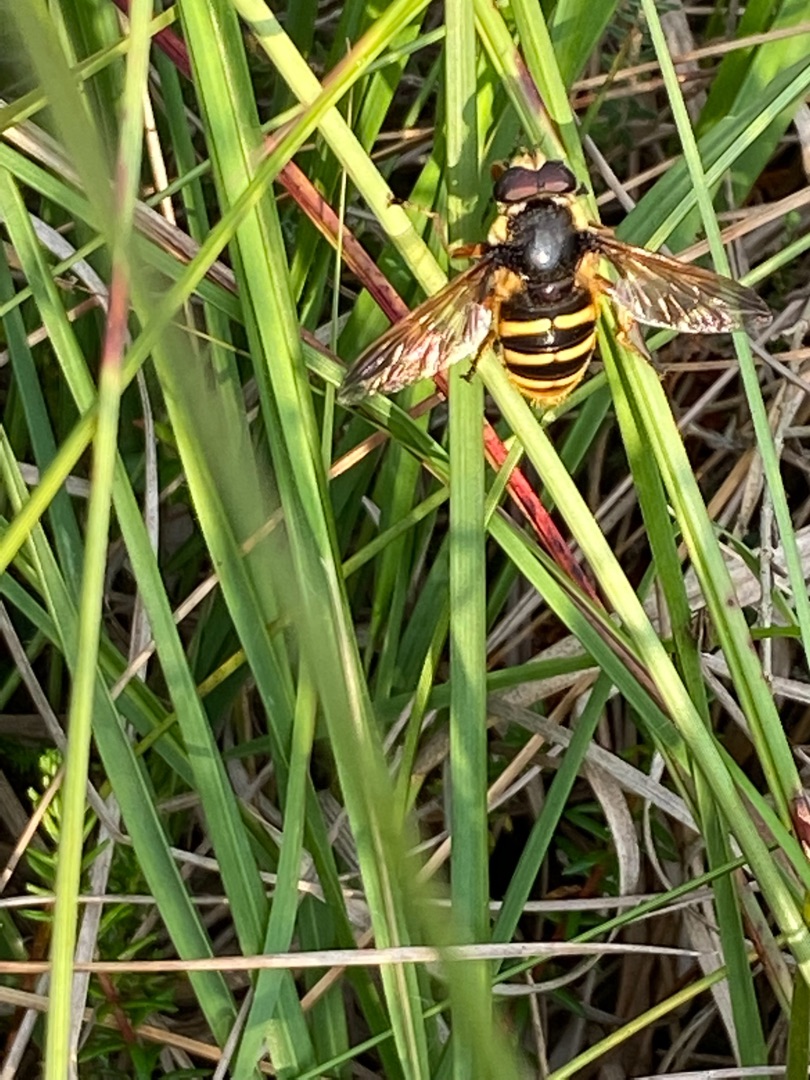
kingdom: Animalia
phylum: Arthropoda
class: Insecta
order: Diptera
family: Syrphidae
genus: Sericomyia
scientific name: Sericomyia silentis
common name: Tørve-silkesvirreflue
